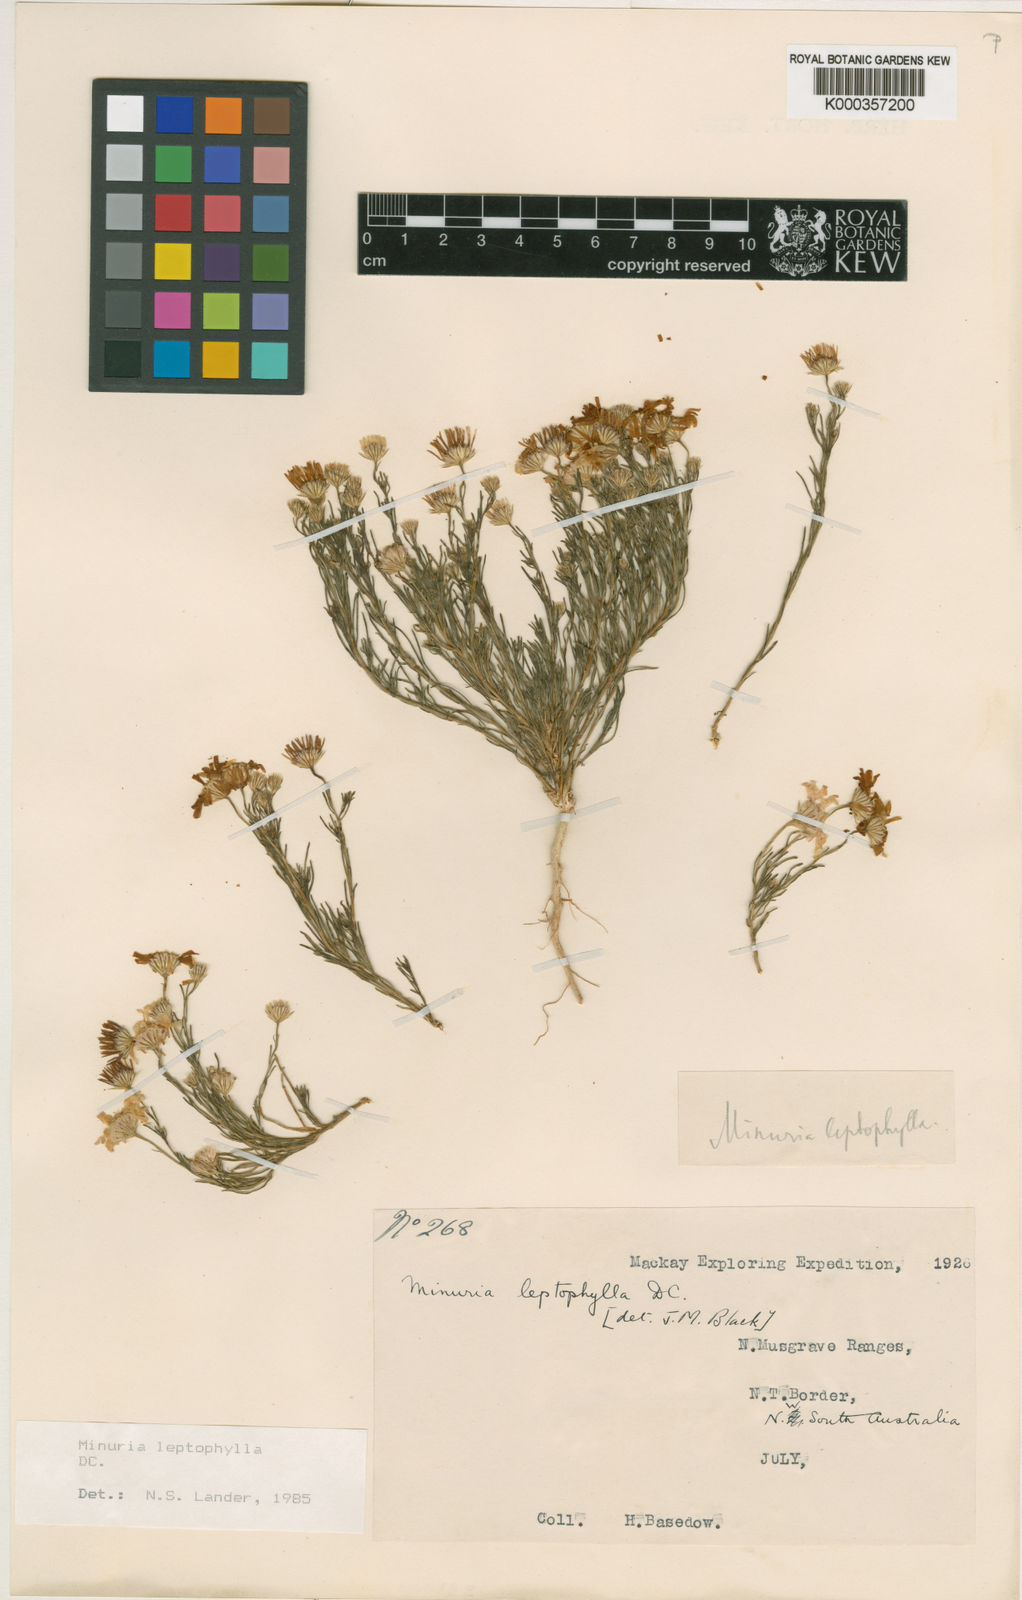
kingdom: Plantae
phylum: Tracheophyta
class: Magnoliopsida
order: Asterales
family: Asteraceae
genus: Minuria
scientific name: Minuria leptophylla
